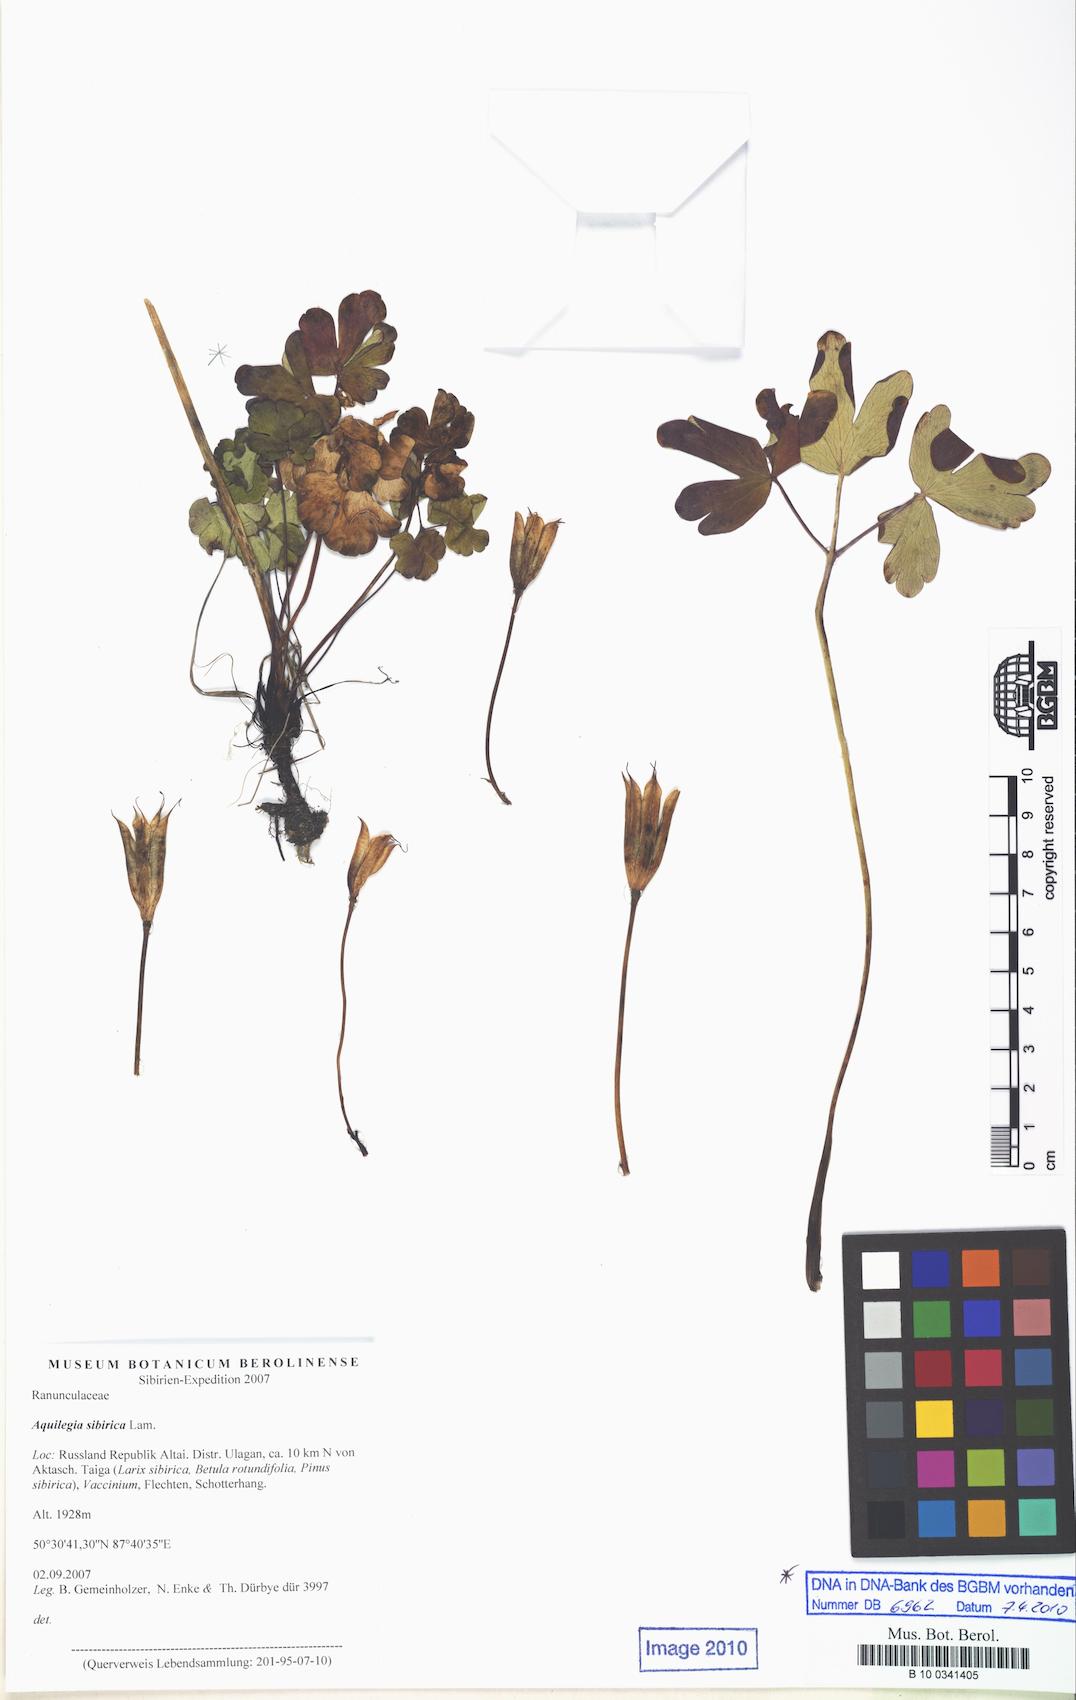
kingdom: Plantae
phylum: Tracheophyta
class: Magnoliopsida
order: Ranunculales
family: Ranunculaceae
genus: Aquilegia
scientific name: Aquilegia sibirica
